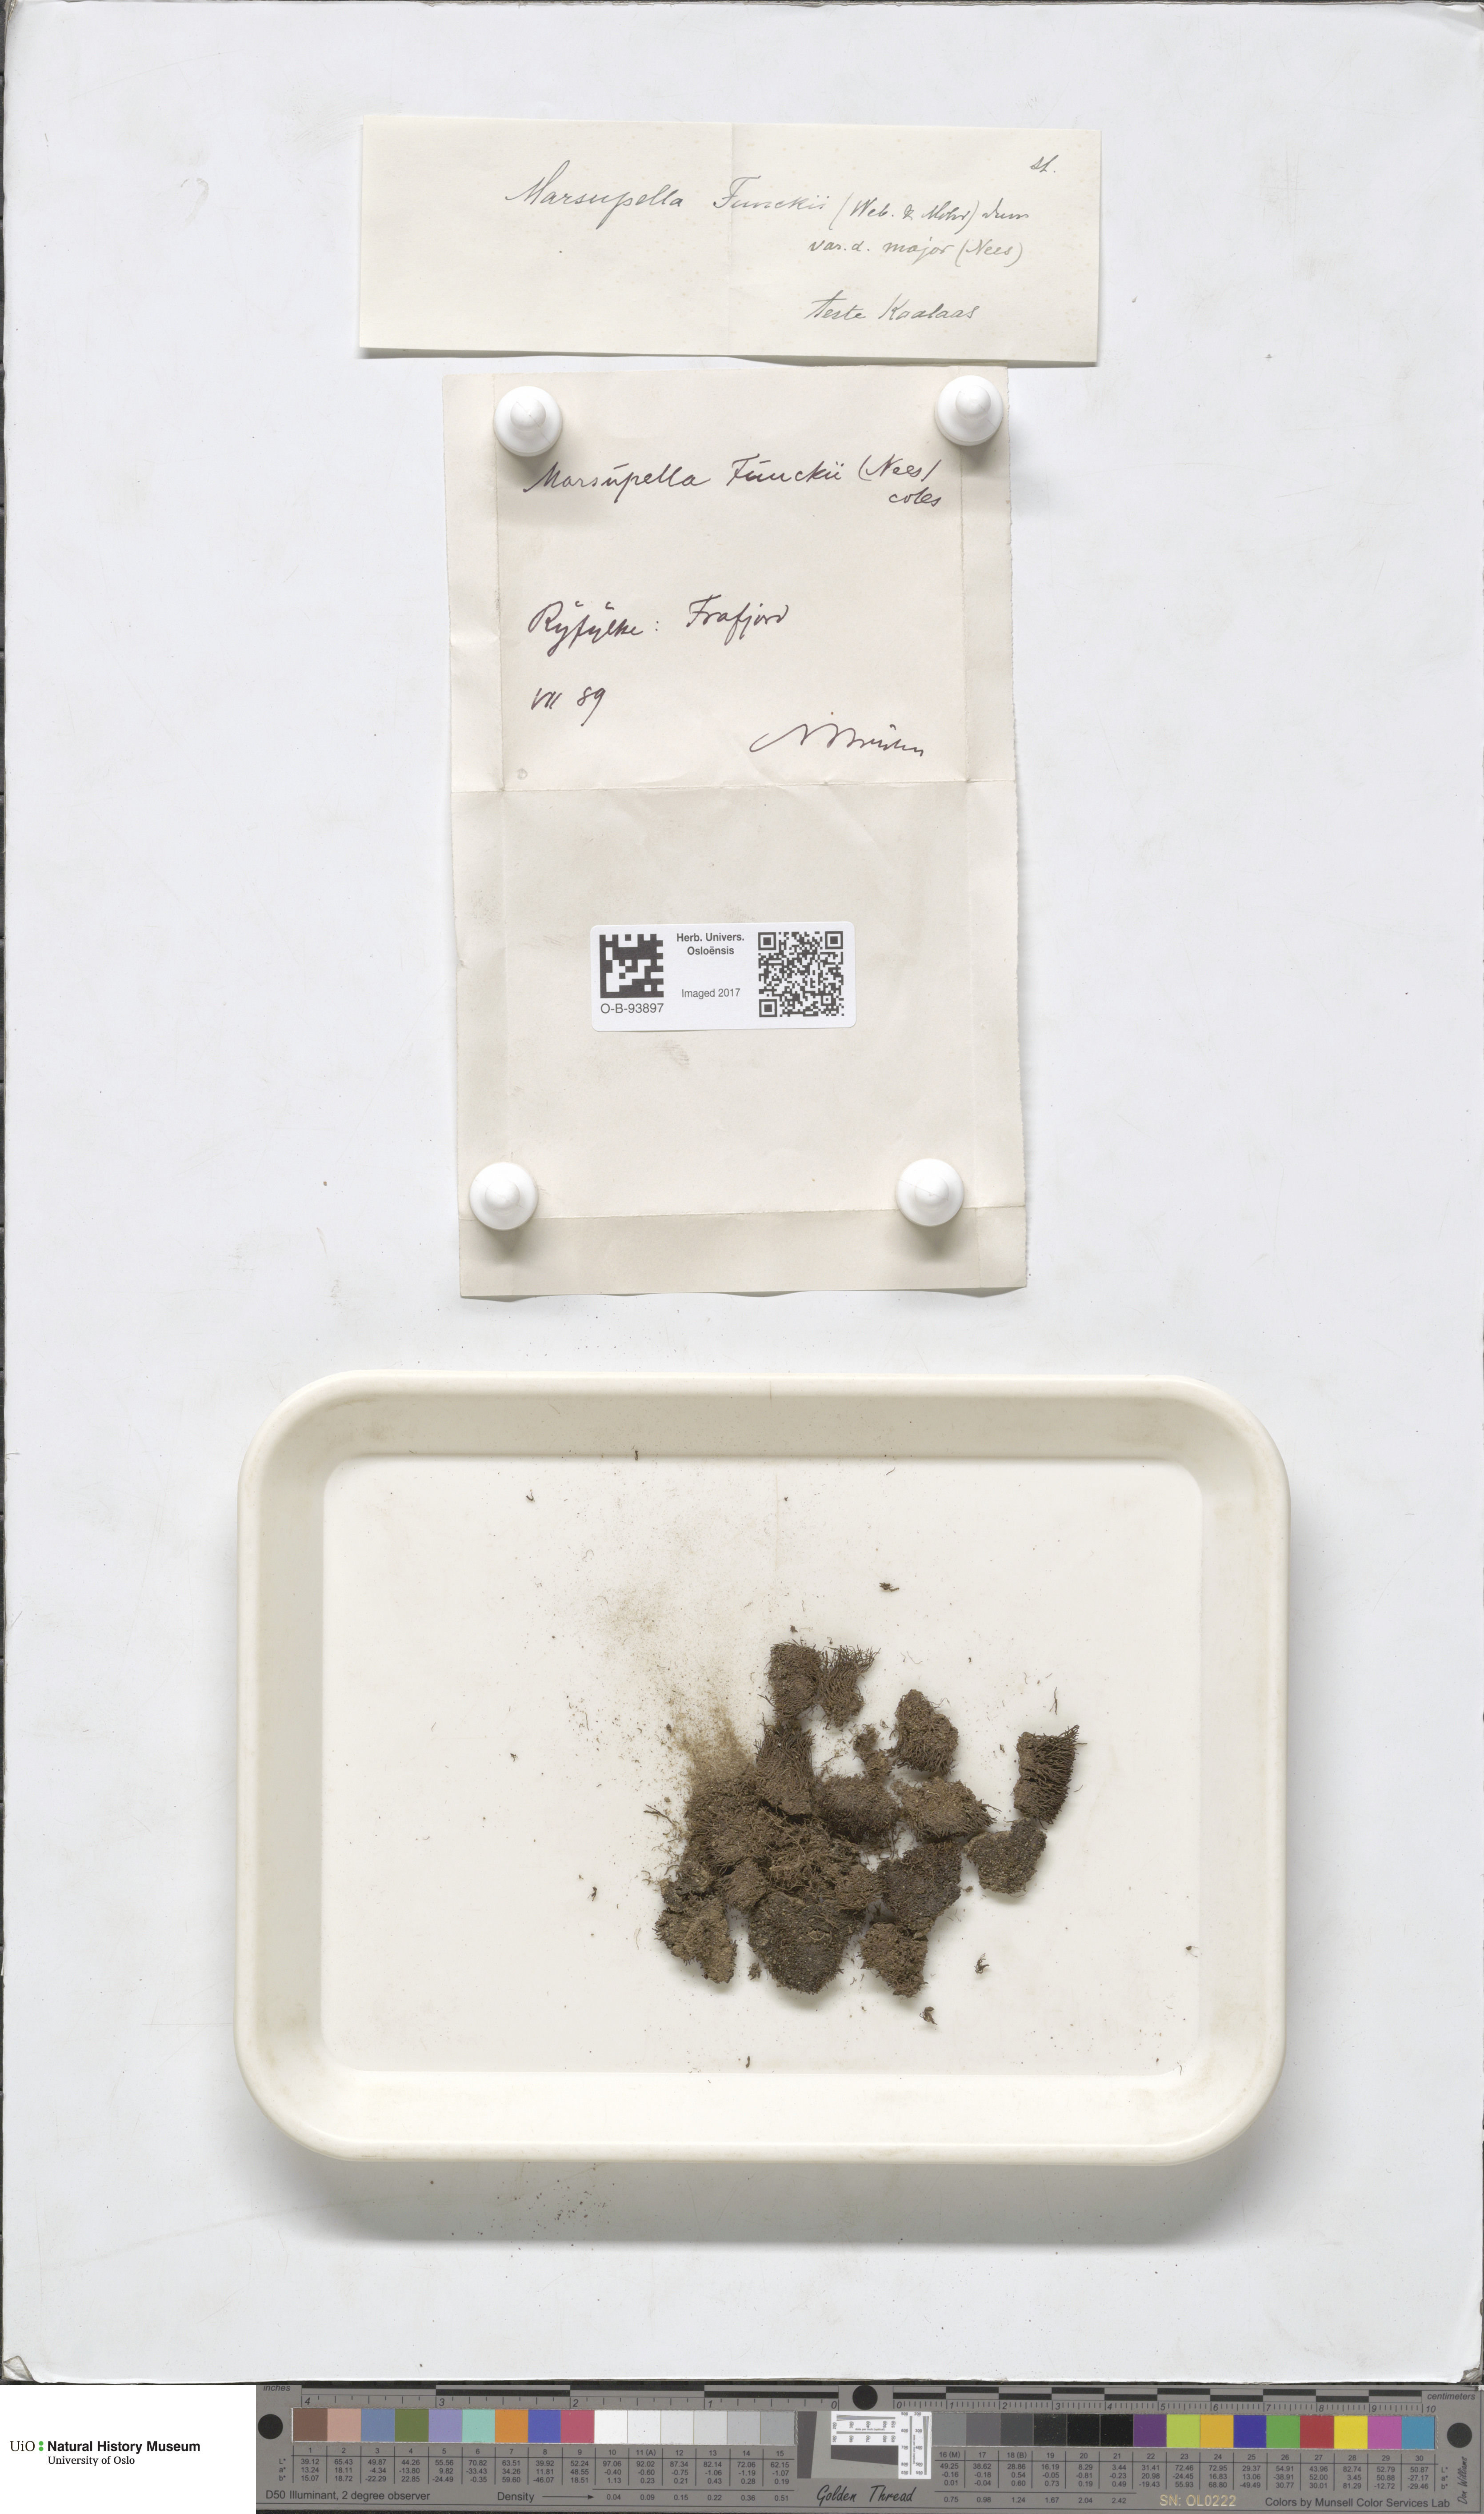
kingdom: Plantae
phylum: Marchantiophyta
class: Jungermanniopsida
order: Jungermanniales
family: Gymnomitriaceae
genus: Marsupella
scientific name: Marsupella funckii
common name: Funck's rustwort
